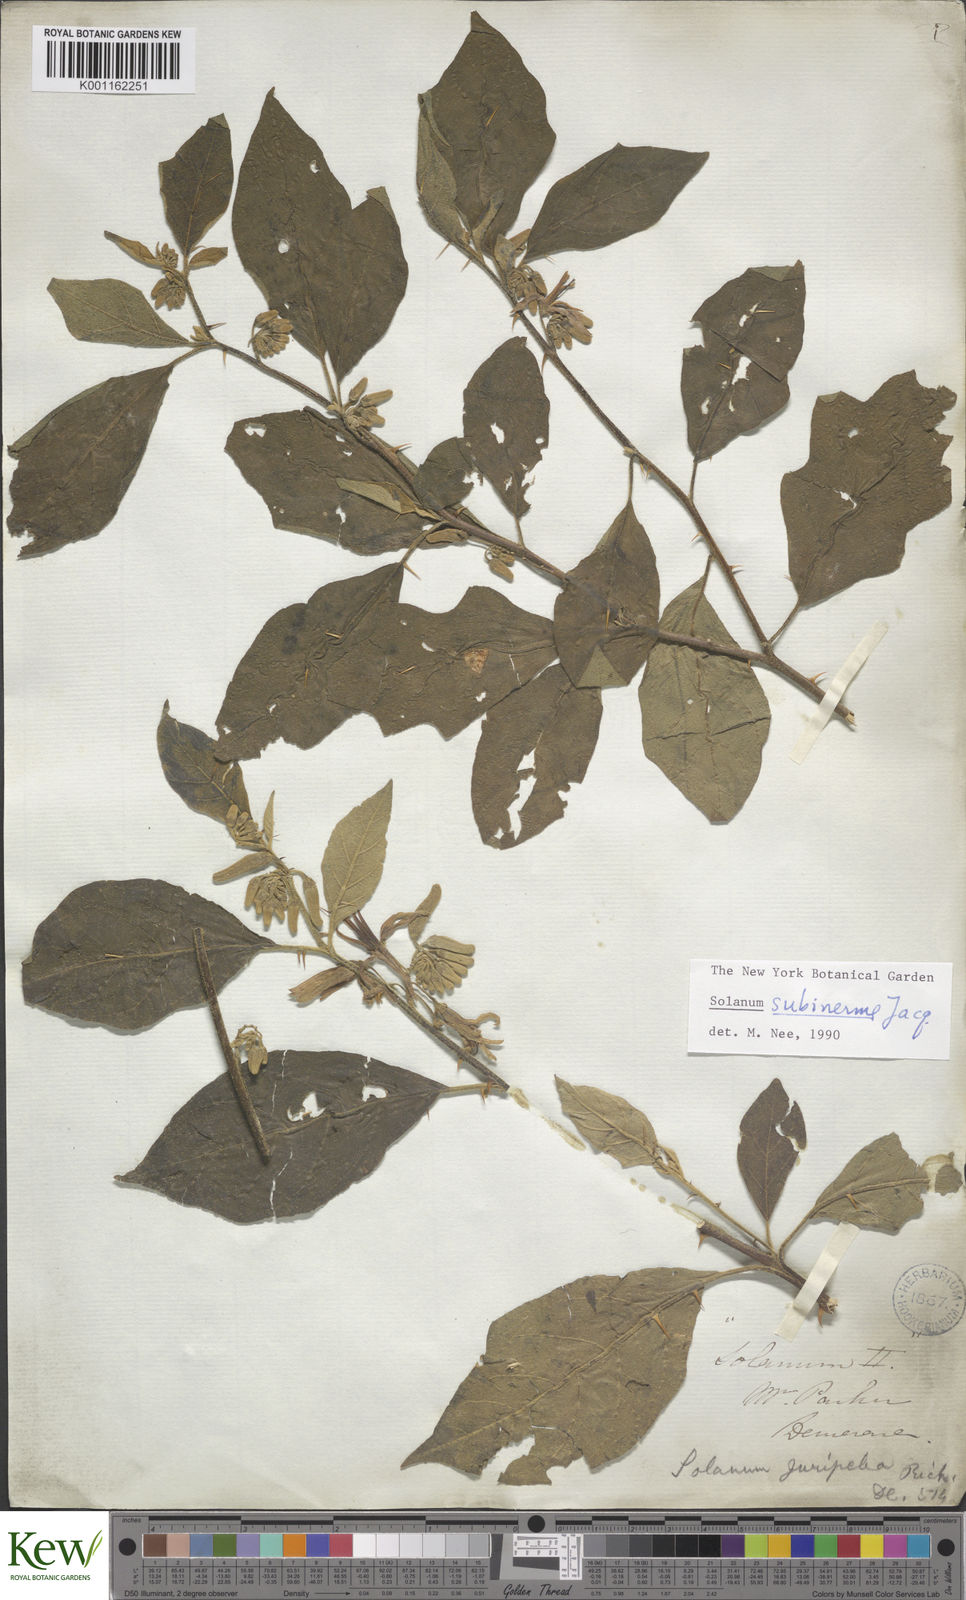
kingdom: Plantae
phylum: Tracheophyta
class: Magnoliopsida
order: Solanales
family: Solanaceae
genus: Solanum
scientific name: Solanum subinerme
